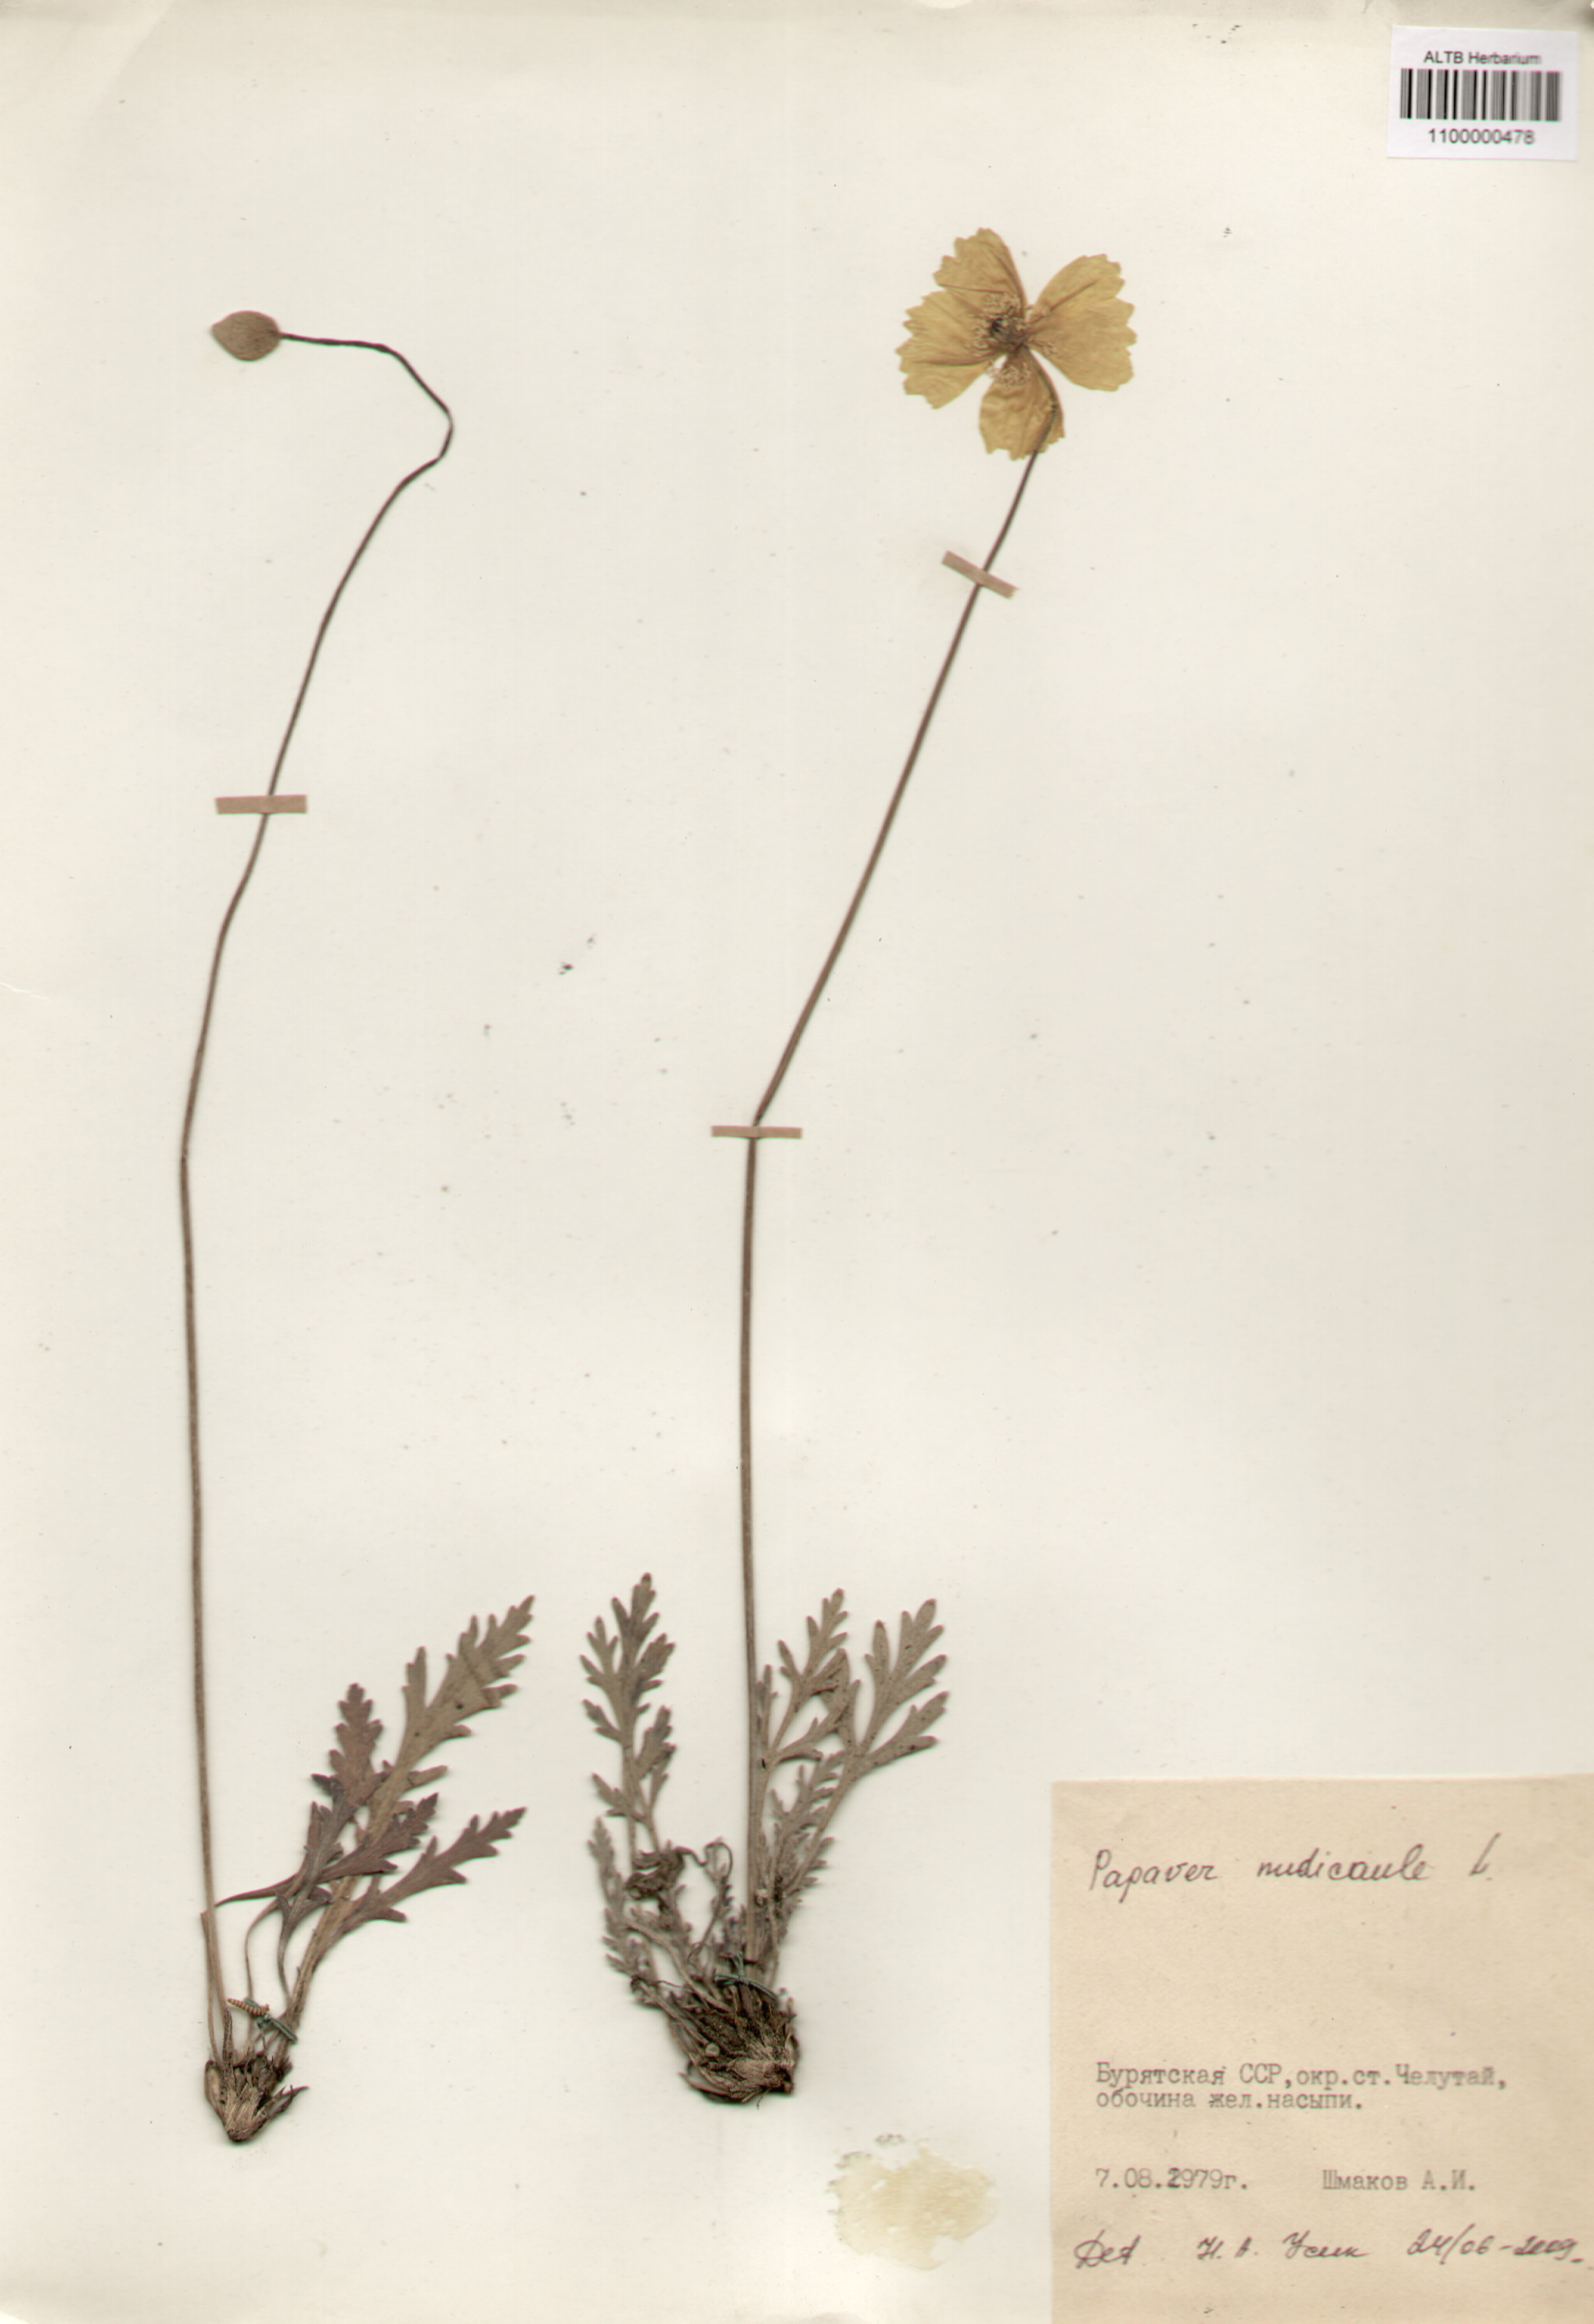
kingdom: Plantae
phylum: Tracheophyta
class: Magnoliopsida
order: Ranunculales
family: Papaveraceae
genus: Papaver
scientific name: Papaver nudicaule
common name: Arctic poppy
